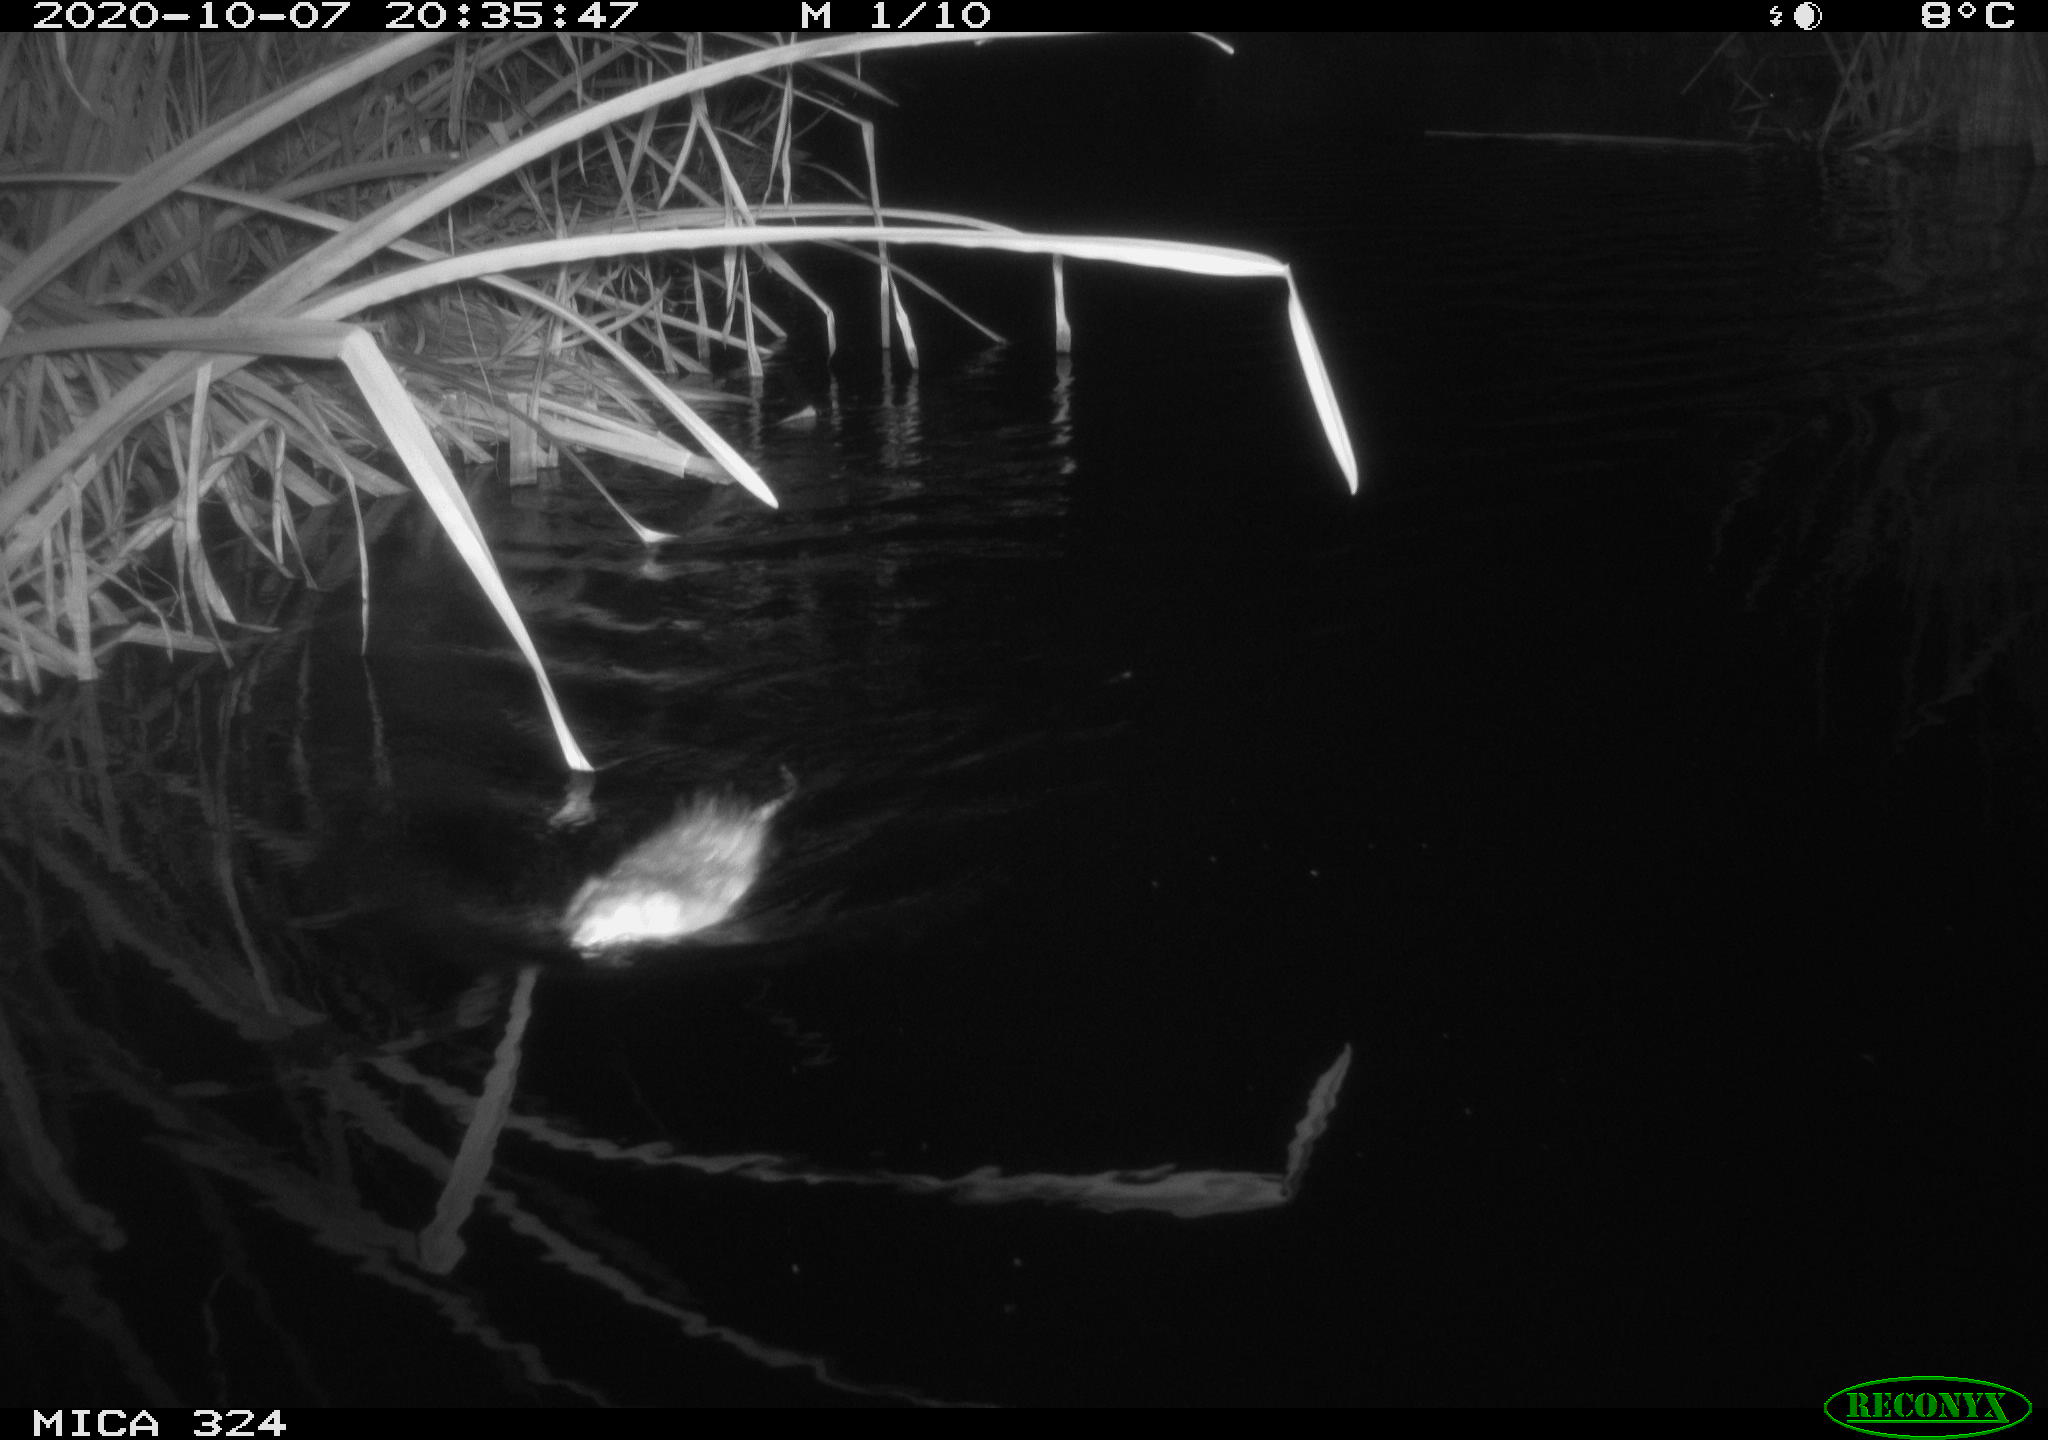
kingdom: Animalia
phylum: Chordata
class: Mammalia
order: Rodentia
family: Cricetidae
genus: Ondatra
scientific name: Ondatra zibethicus
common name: Muskrat
